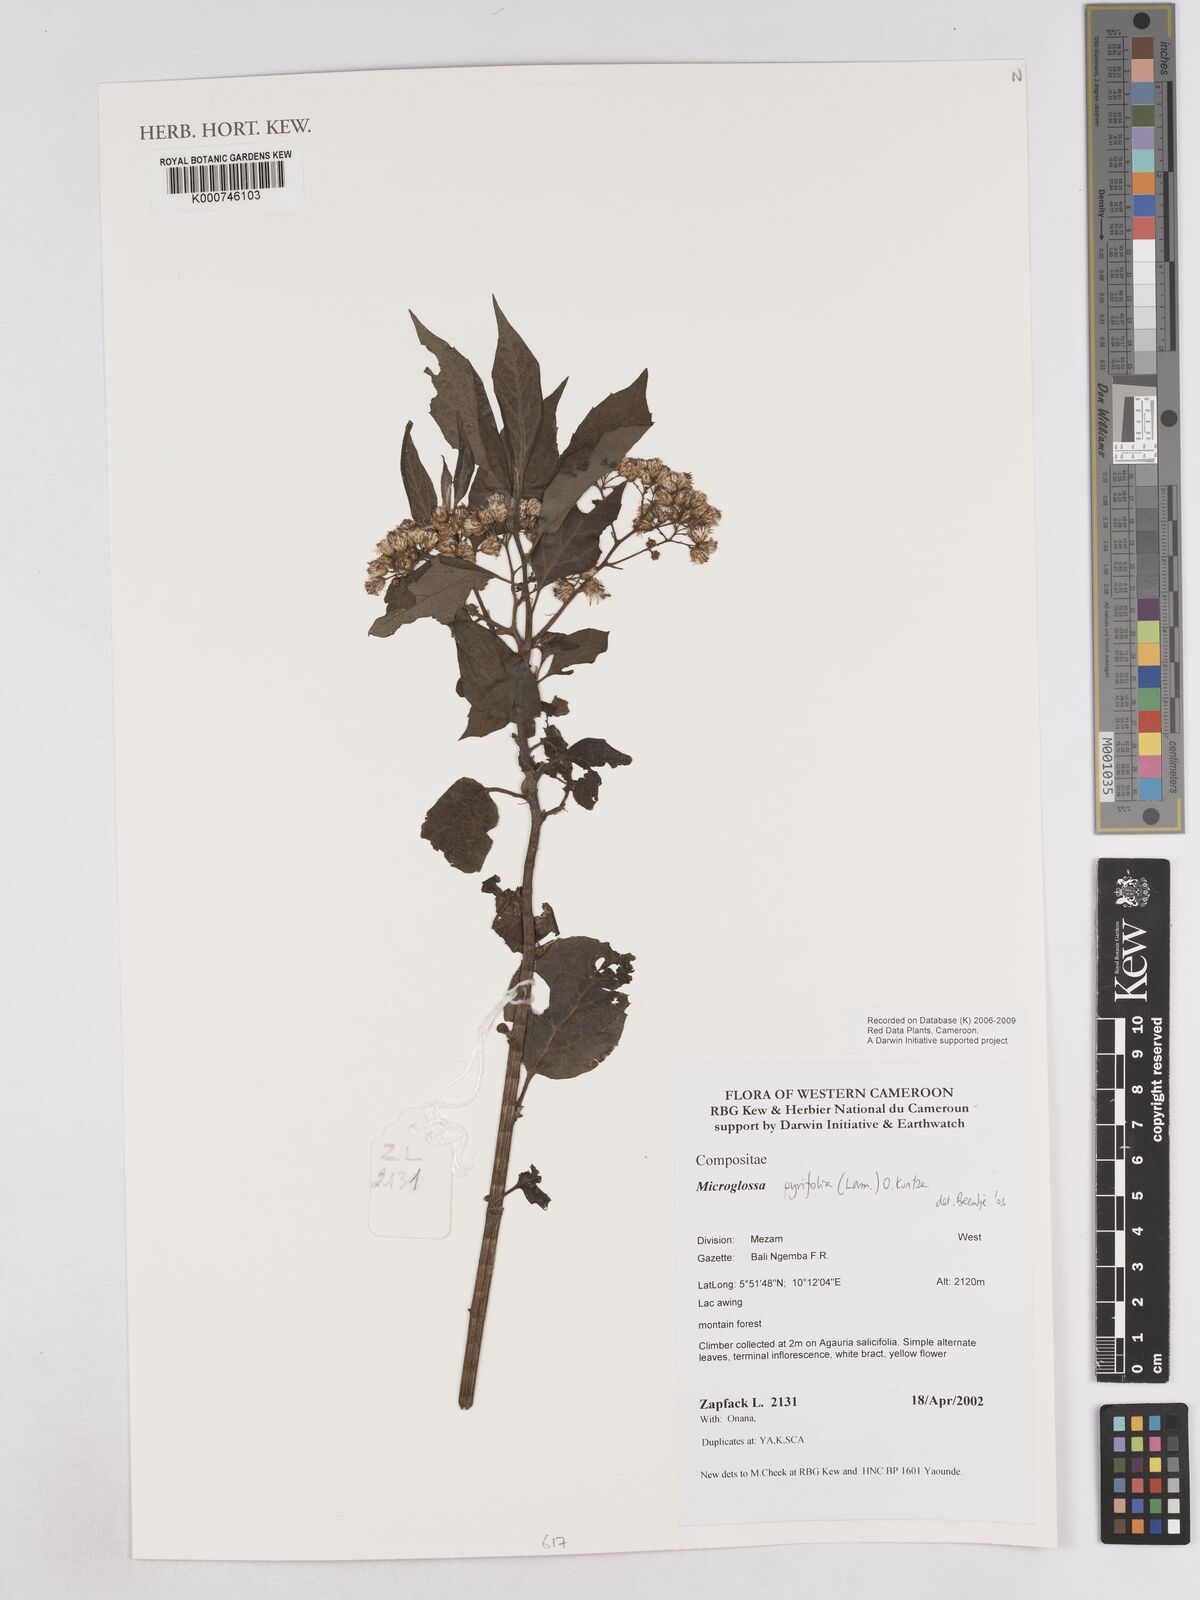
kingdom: Plantae
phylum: Tracheophyta
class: Magnoliopsida
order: Asterales
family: Asteraceae
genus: Microglossa
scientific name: Microglossa pyrifolia
